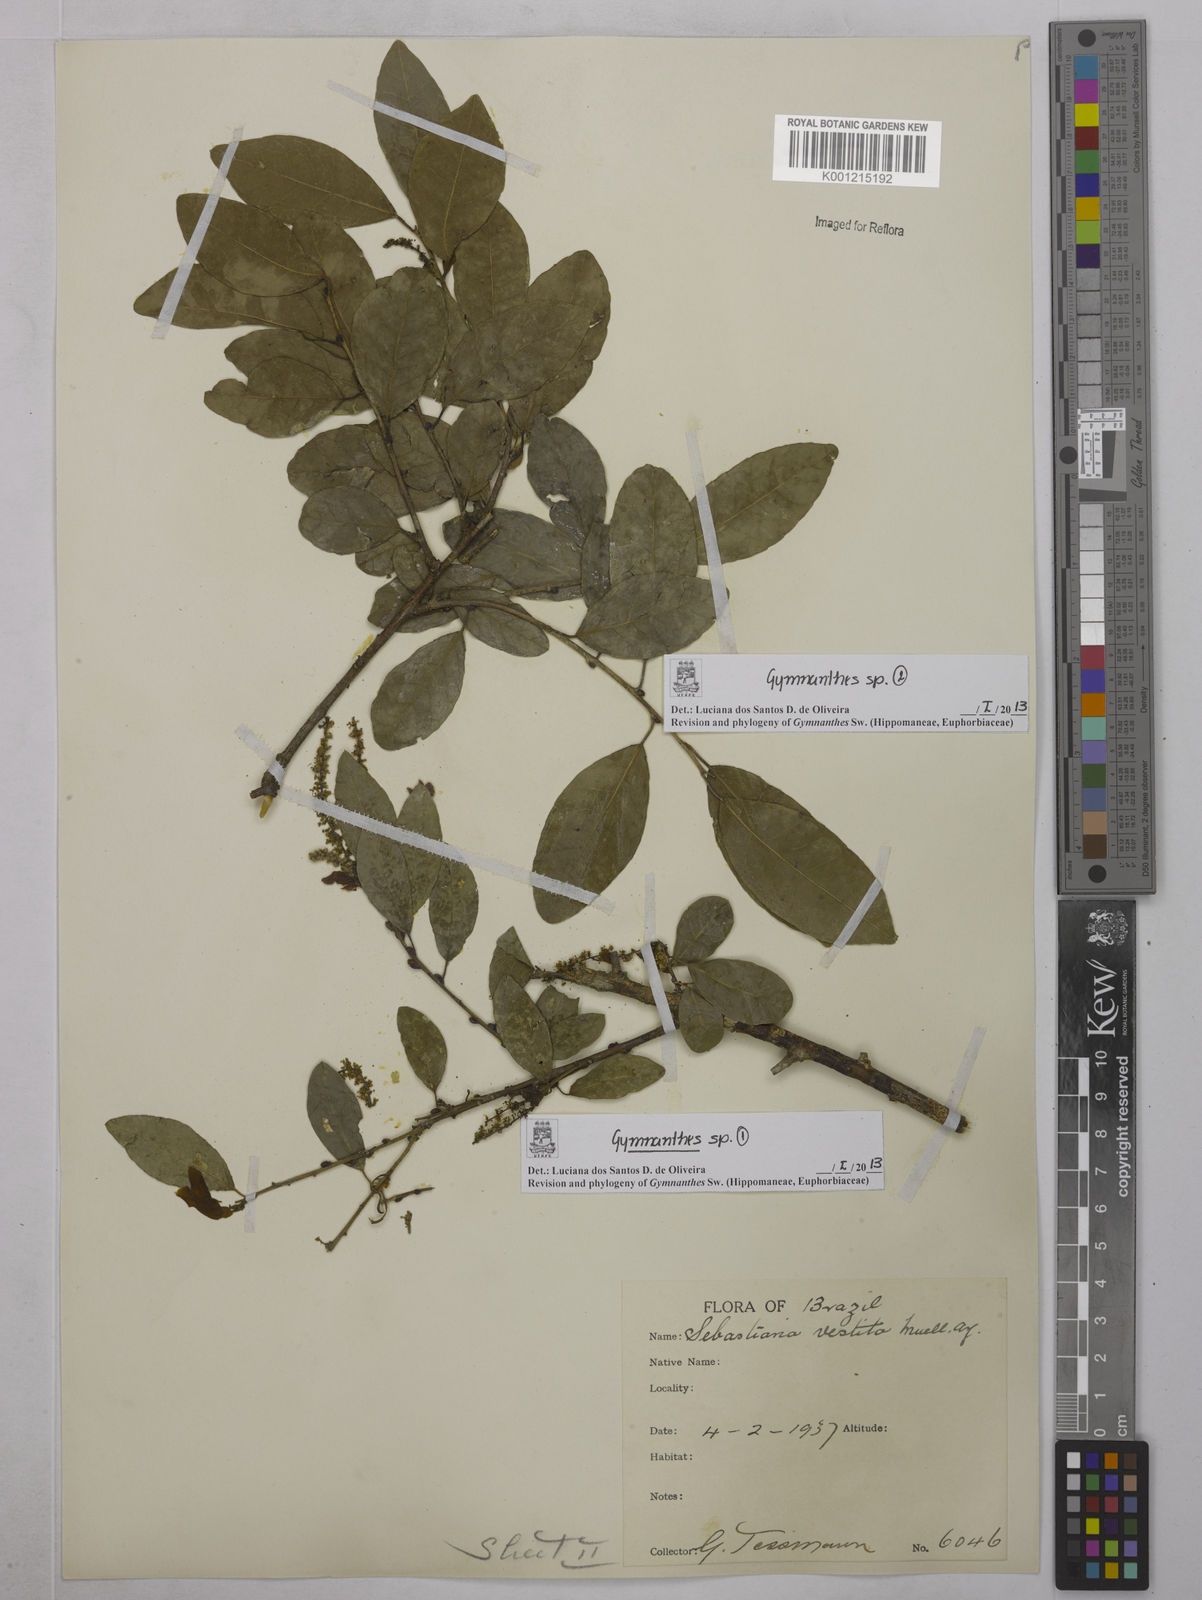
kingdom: Plantae
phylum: Tracheophyta
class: Magnoliopsida
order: Malpighiales
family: Euphorbiaceae
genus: Gymnanthes
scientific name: Gymnanthes
